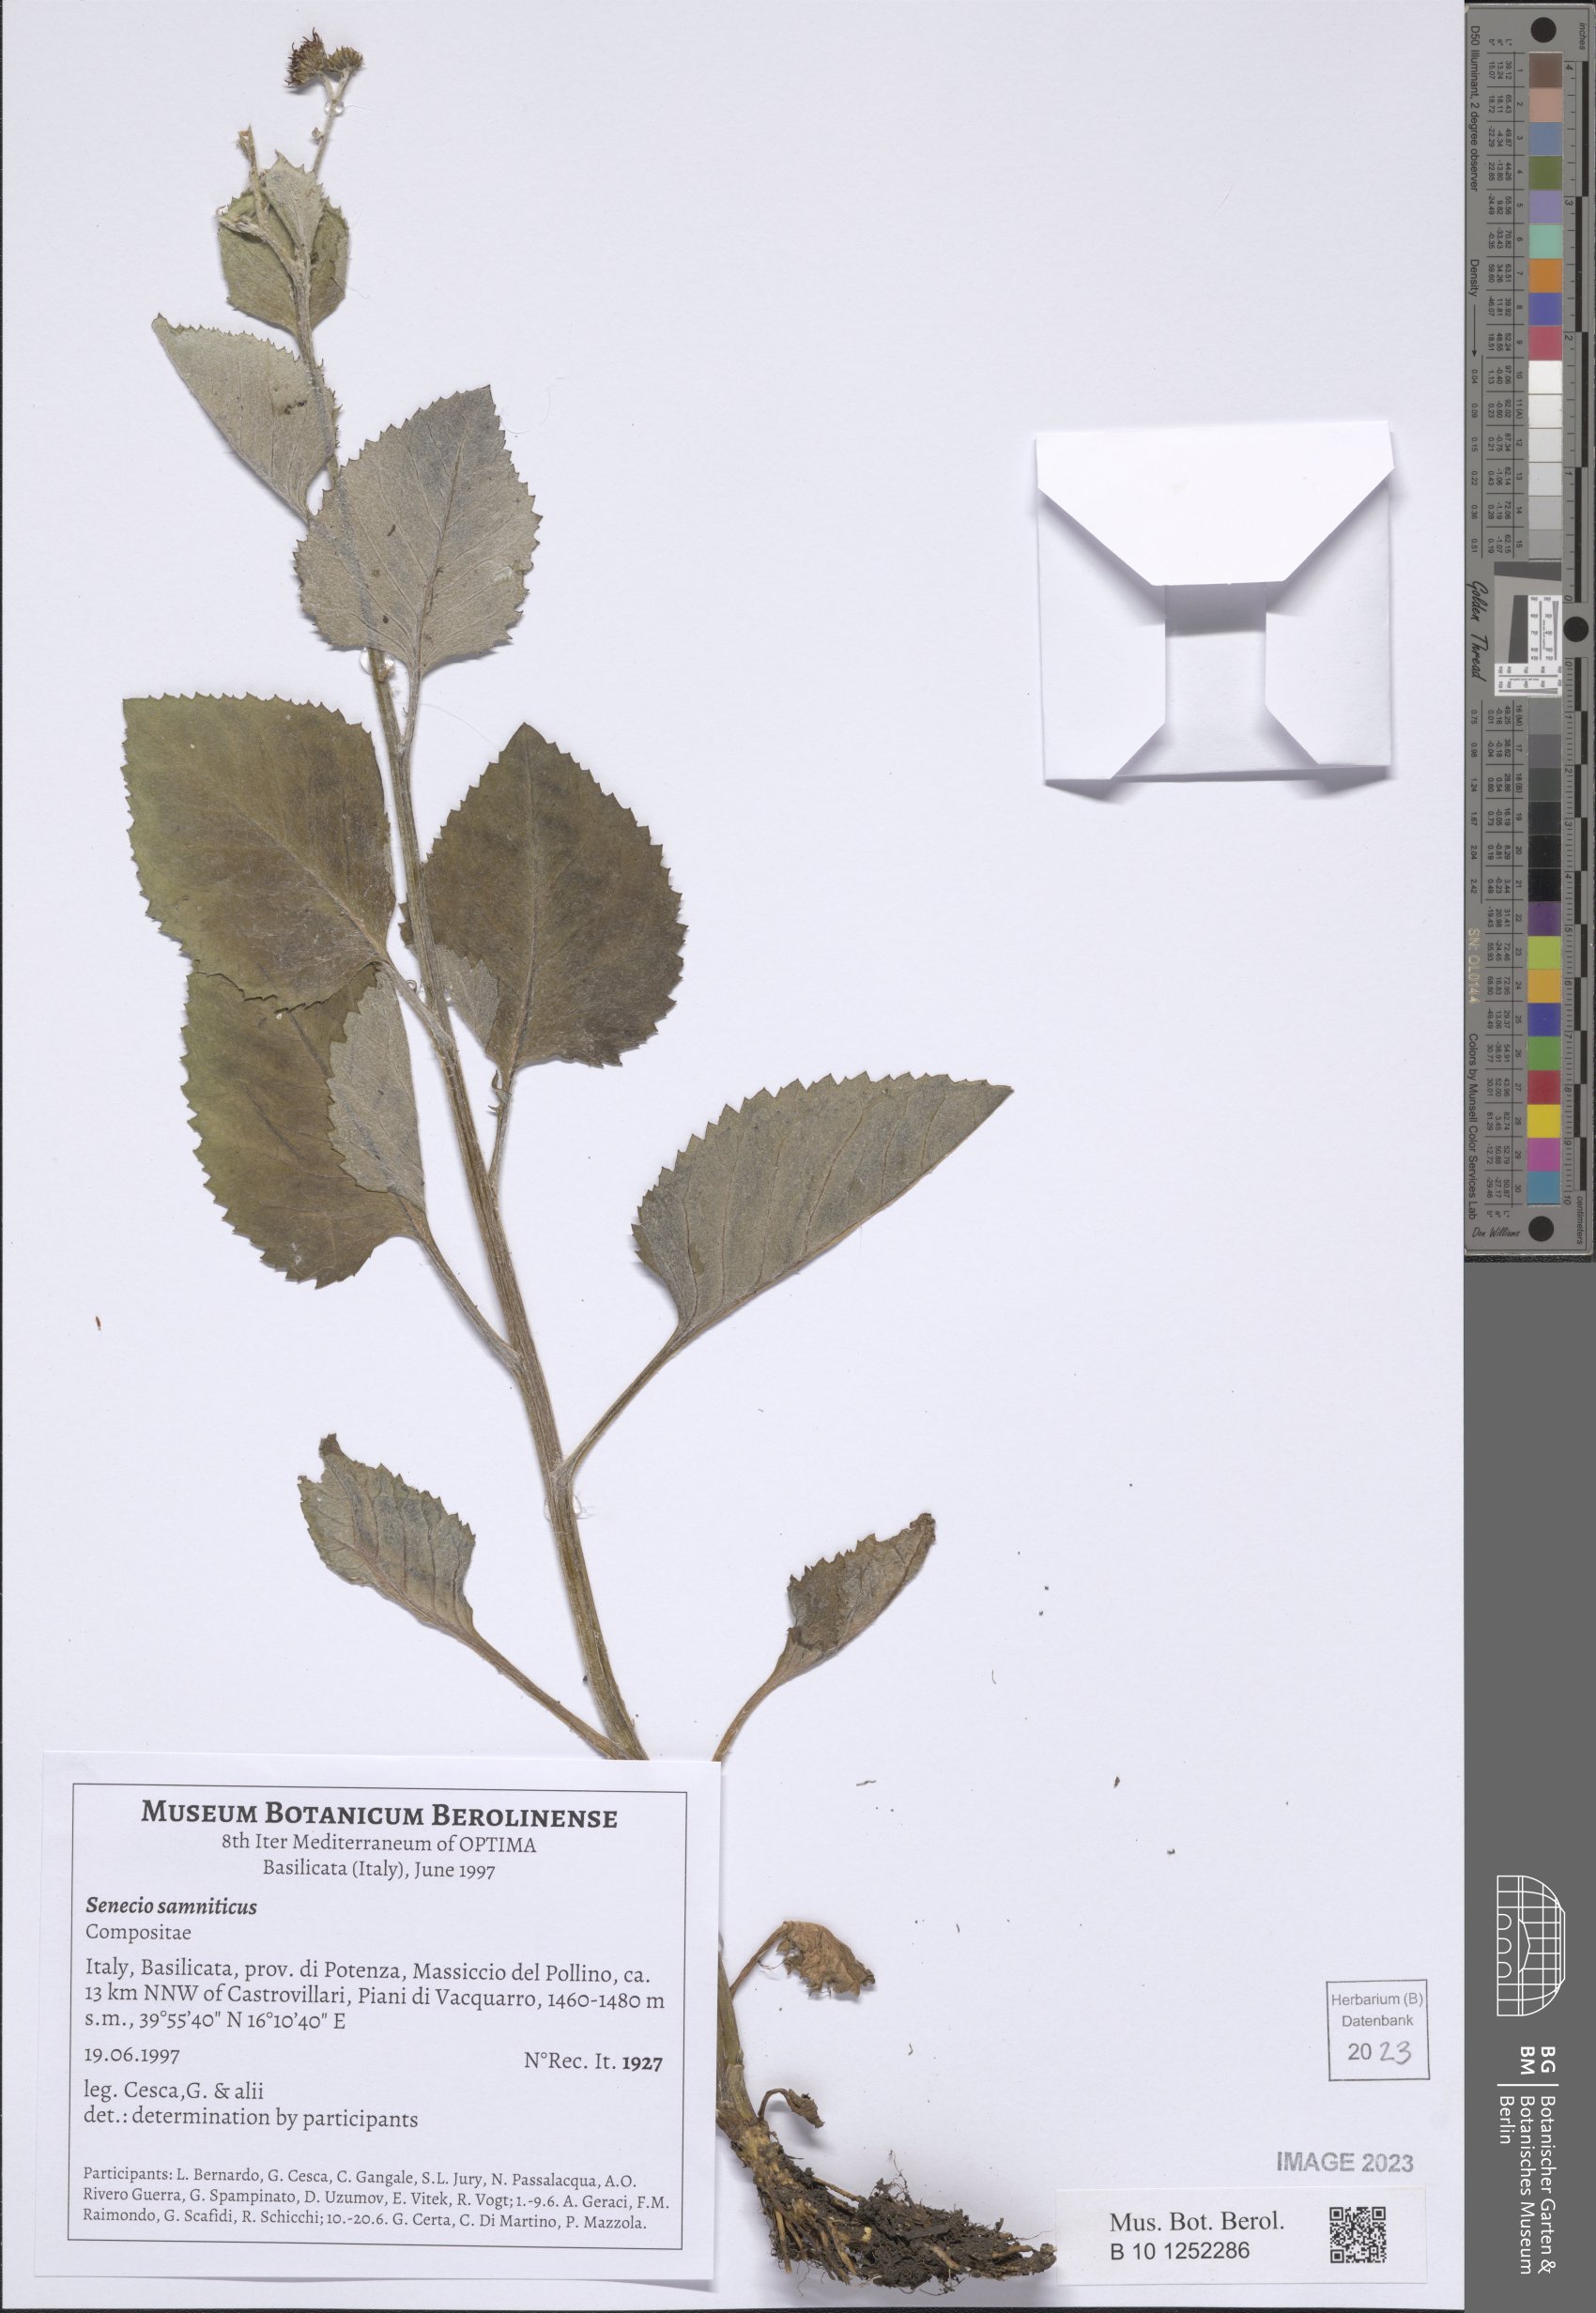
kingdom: Plantae
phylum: Tracheophyta
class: Magnoliopsida
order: Asterales
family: Asteraceae
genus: Jacobaea
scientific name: Jacobaea alpina
